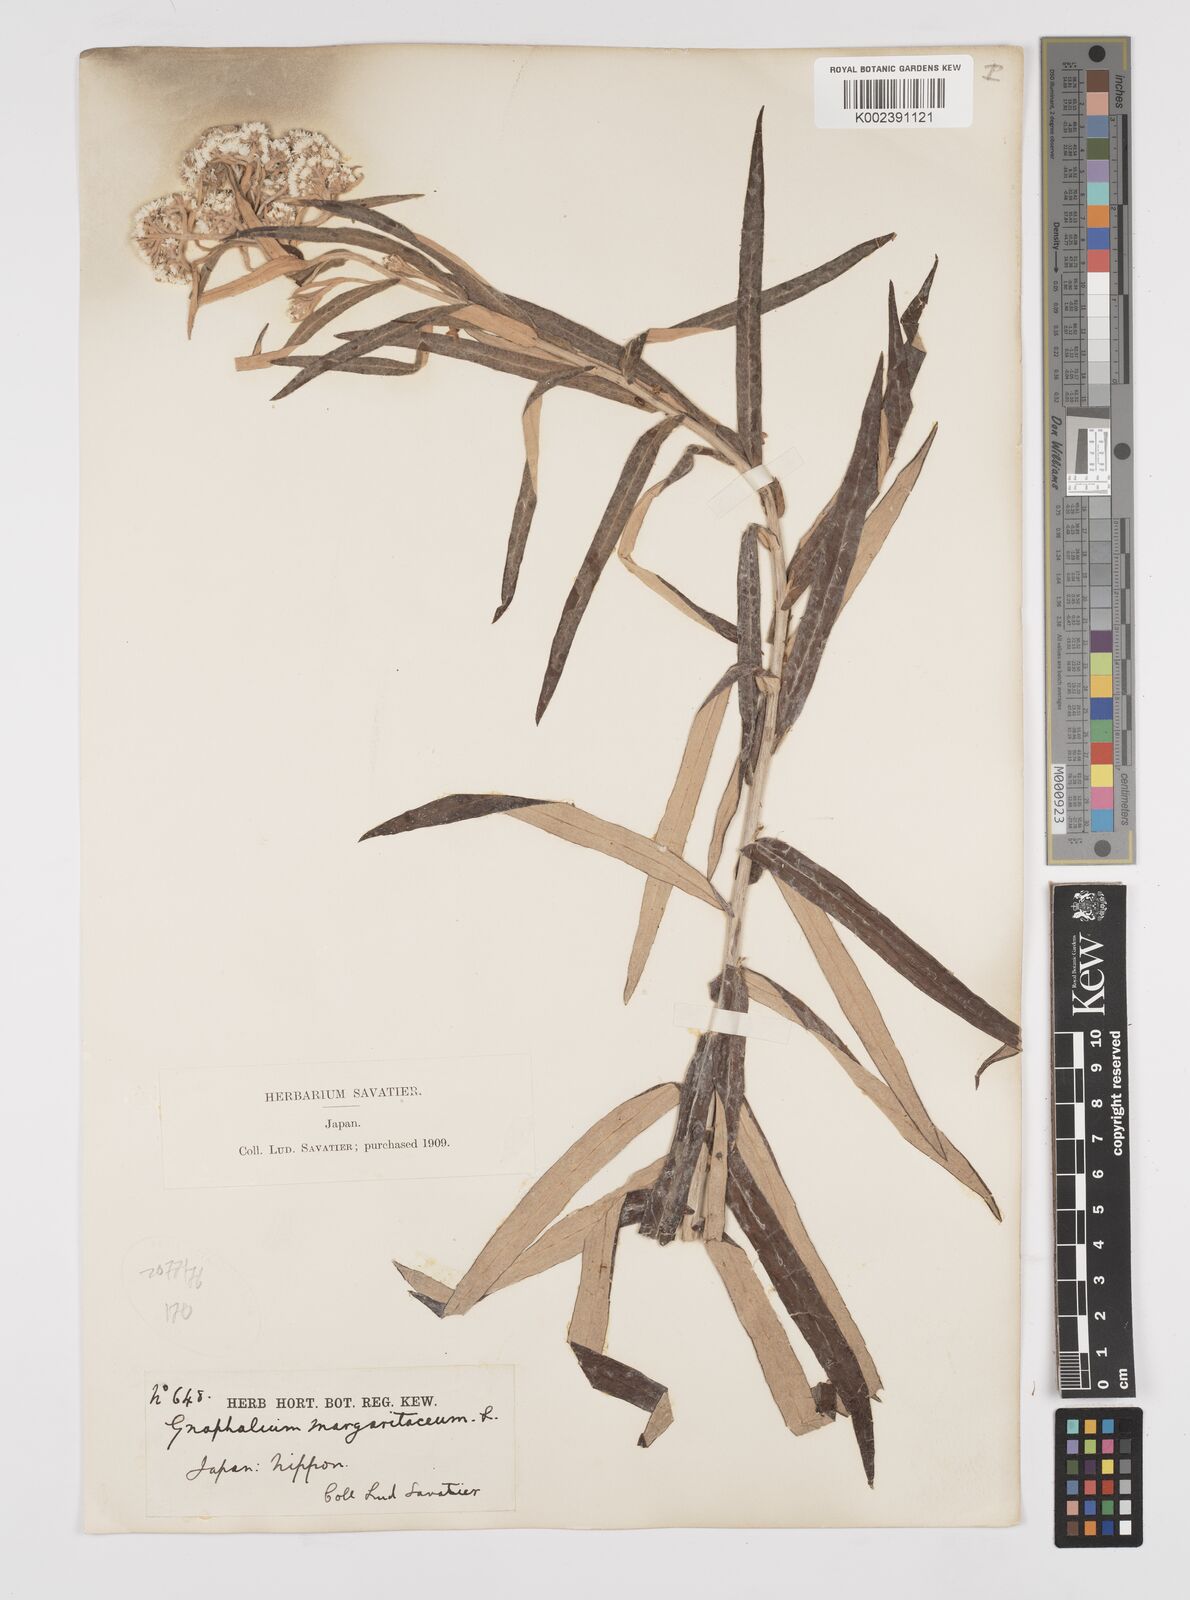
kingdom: Plantae
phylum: Tracheophyta
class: Magnoliopsida
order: Asterales
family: Asteraceae
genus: Anaphalis
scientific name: Anaphalis margaritacea
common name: Pearly everlasting
